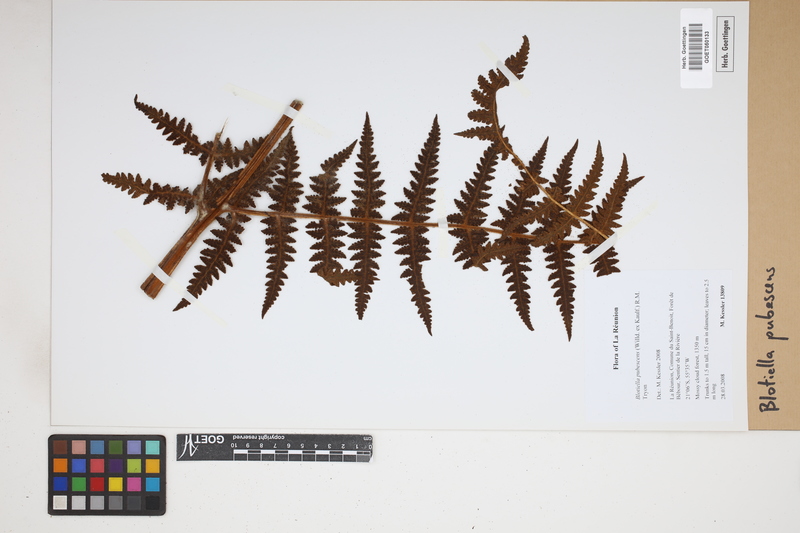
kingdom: Plantae
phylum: Tracheophyta
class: Polypodiopsida
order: Polypodiales
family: Dennstaedtiaceae
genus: Blotiella
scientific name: Blotiella pubescens
